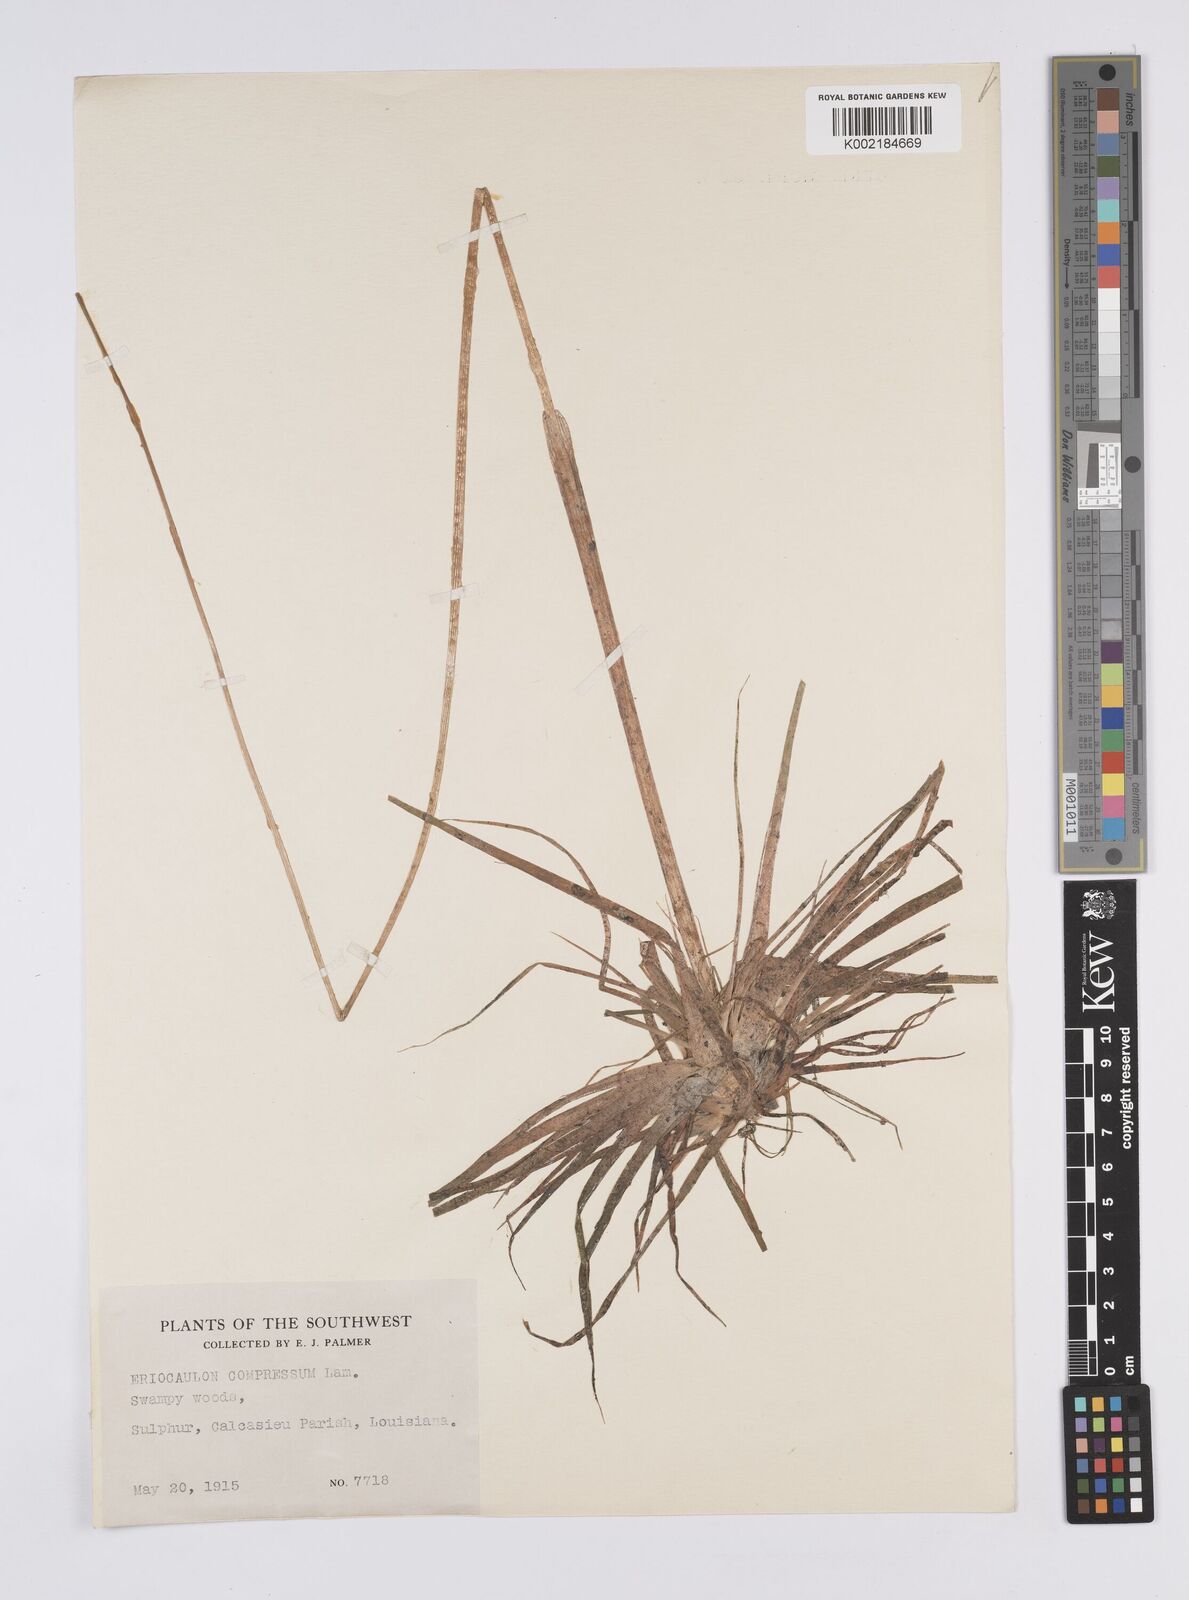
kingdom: Plantae
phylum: Tracheophyta
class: Liliopsida
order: Poales
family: Eriocaulaceae
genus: Eriocaulon
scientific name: Eriocaulon compressum
